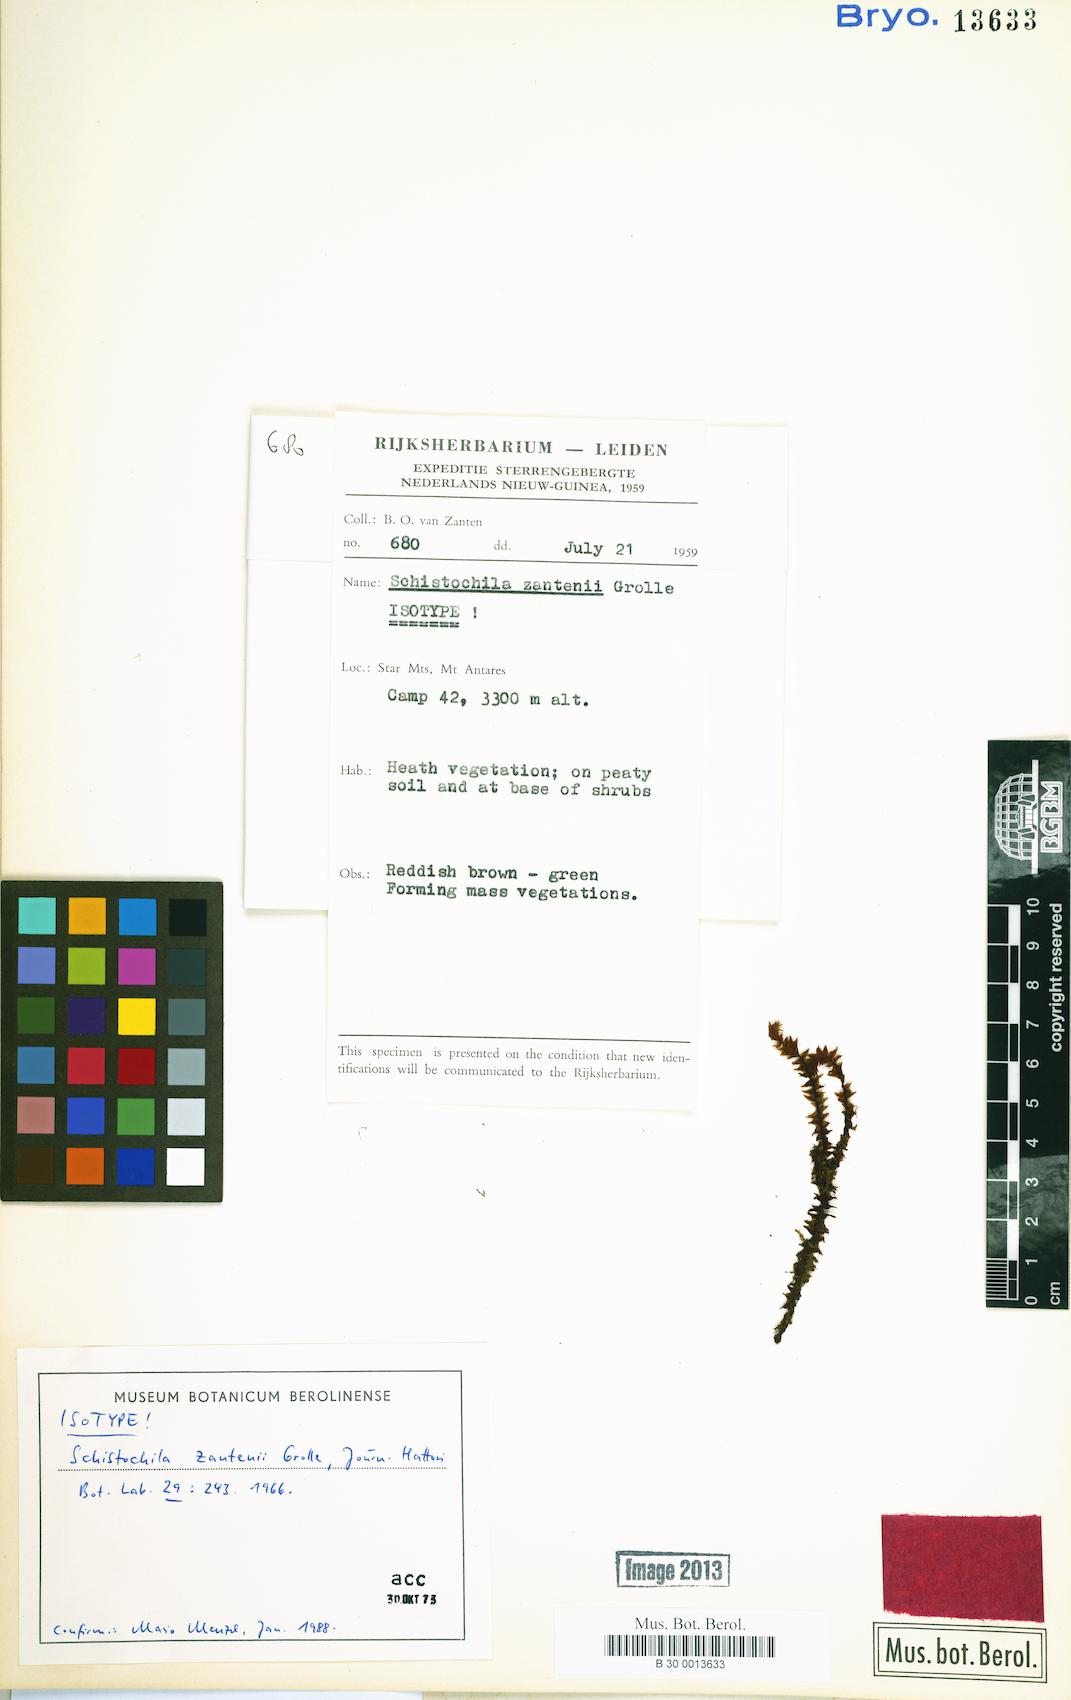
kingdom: Plantae
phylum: Marchantiophyta
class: Jungermanniopsida
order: Jungermanniales
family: Schistochilaceae
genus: Schistochila
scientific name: Schistochila zantenii
